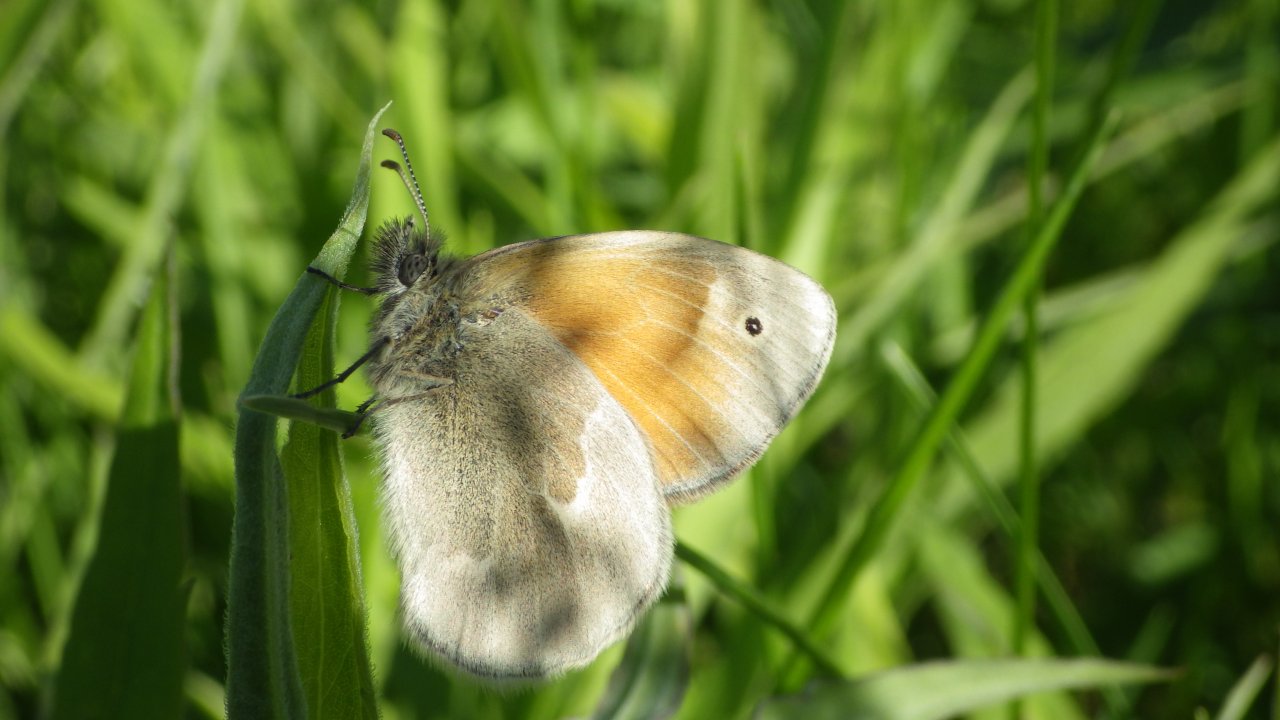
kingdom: Animalia
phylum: Arthropoda
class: Insecta
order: Lepidoptera
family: Nymphalidae
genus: Coenonympha
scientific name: Coenonympha tullia
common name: Large Heath
